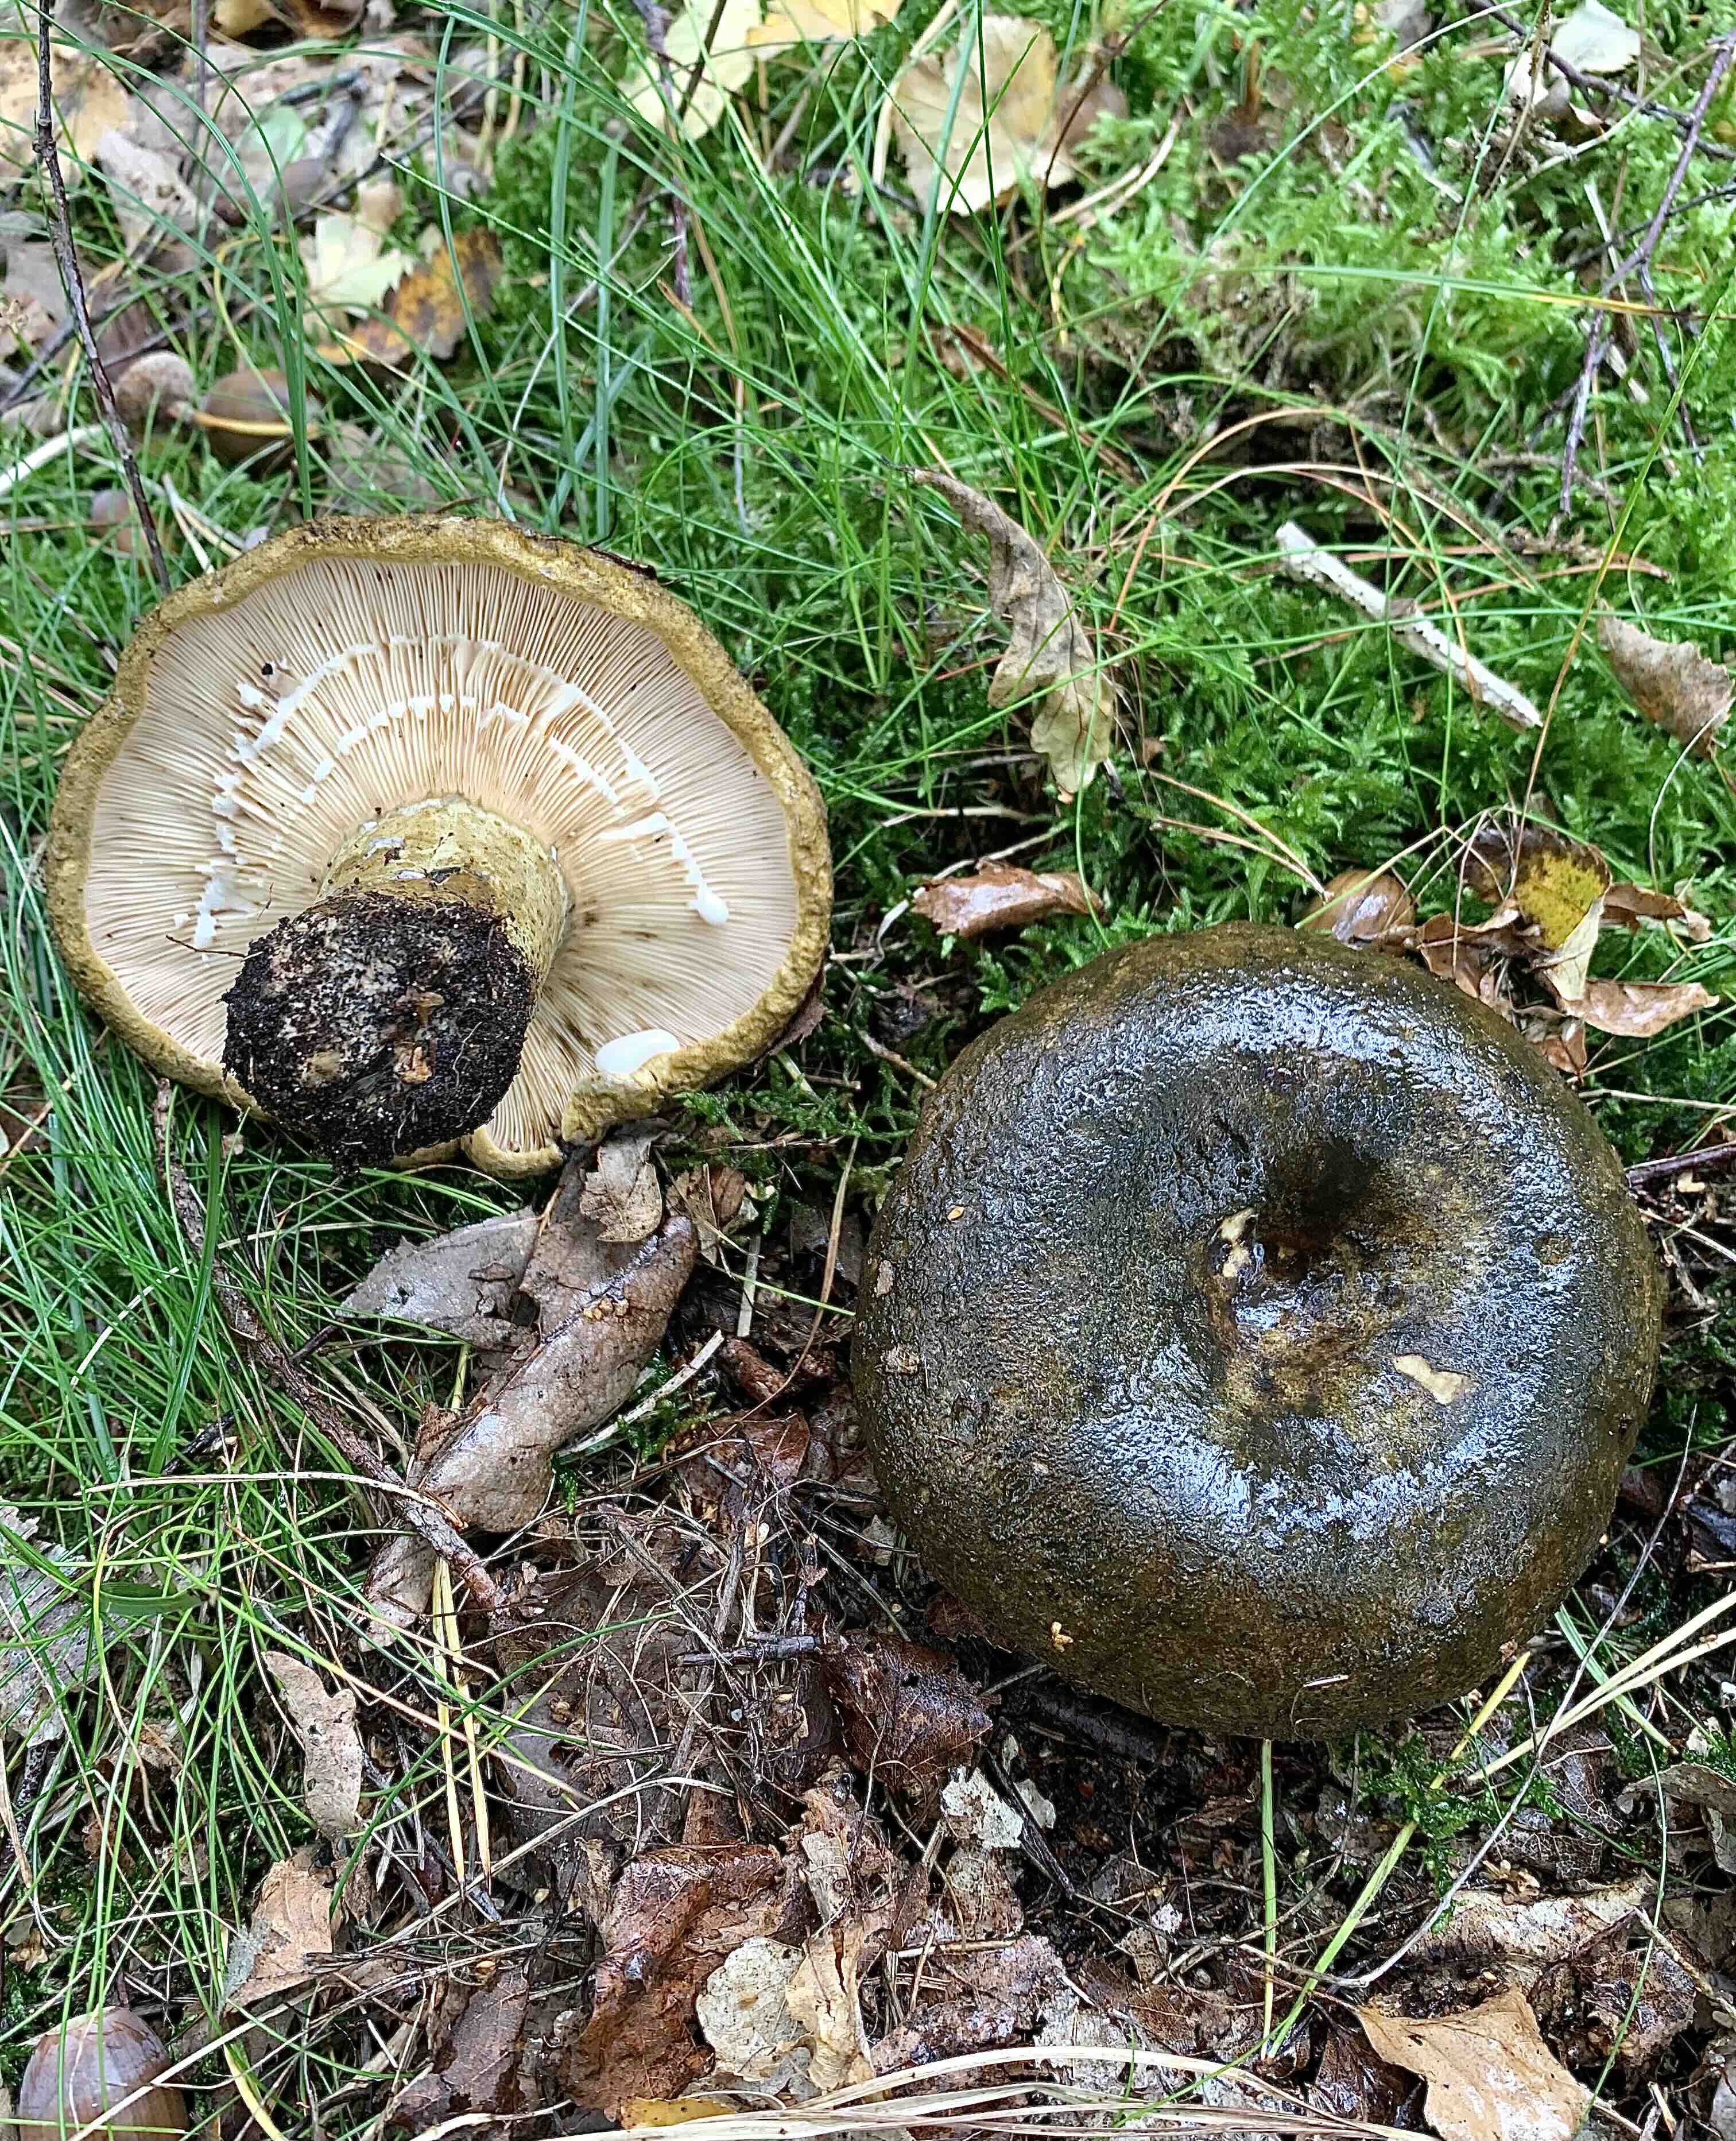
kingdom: Fungi
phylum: Basidiomycota
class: Agaricomycetes
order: Russulales
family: Russulaceae
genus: Lactarius
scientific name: Lactarius necator
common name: manddraber-mælkehat
